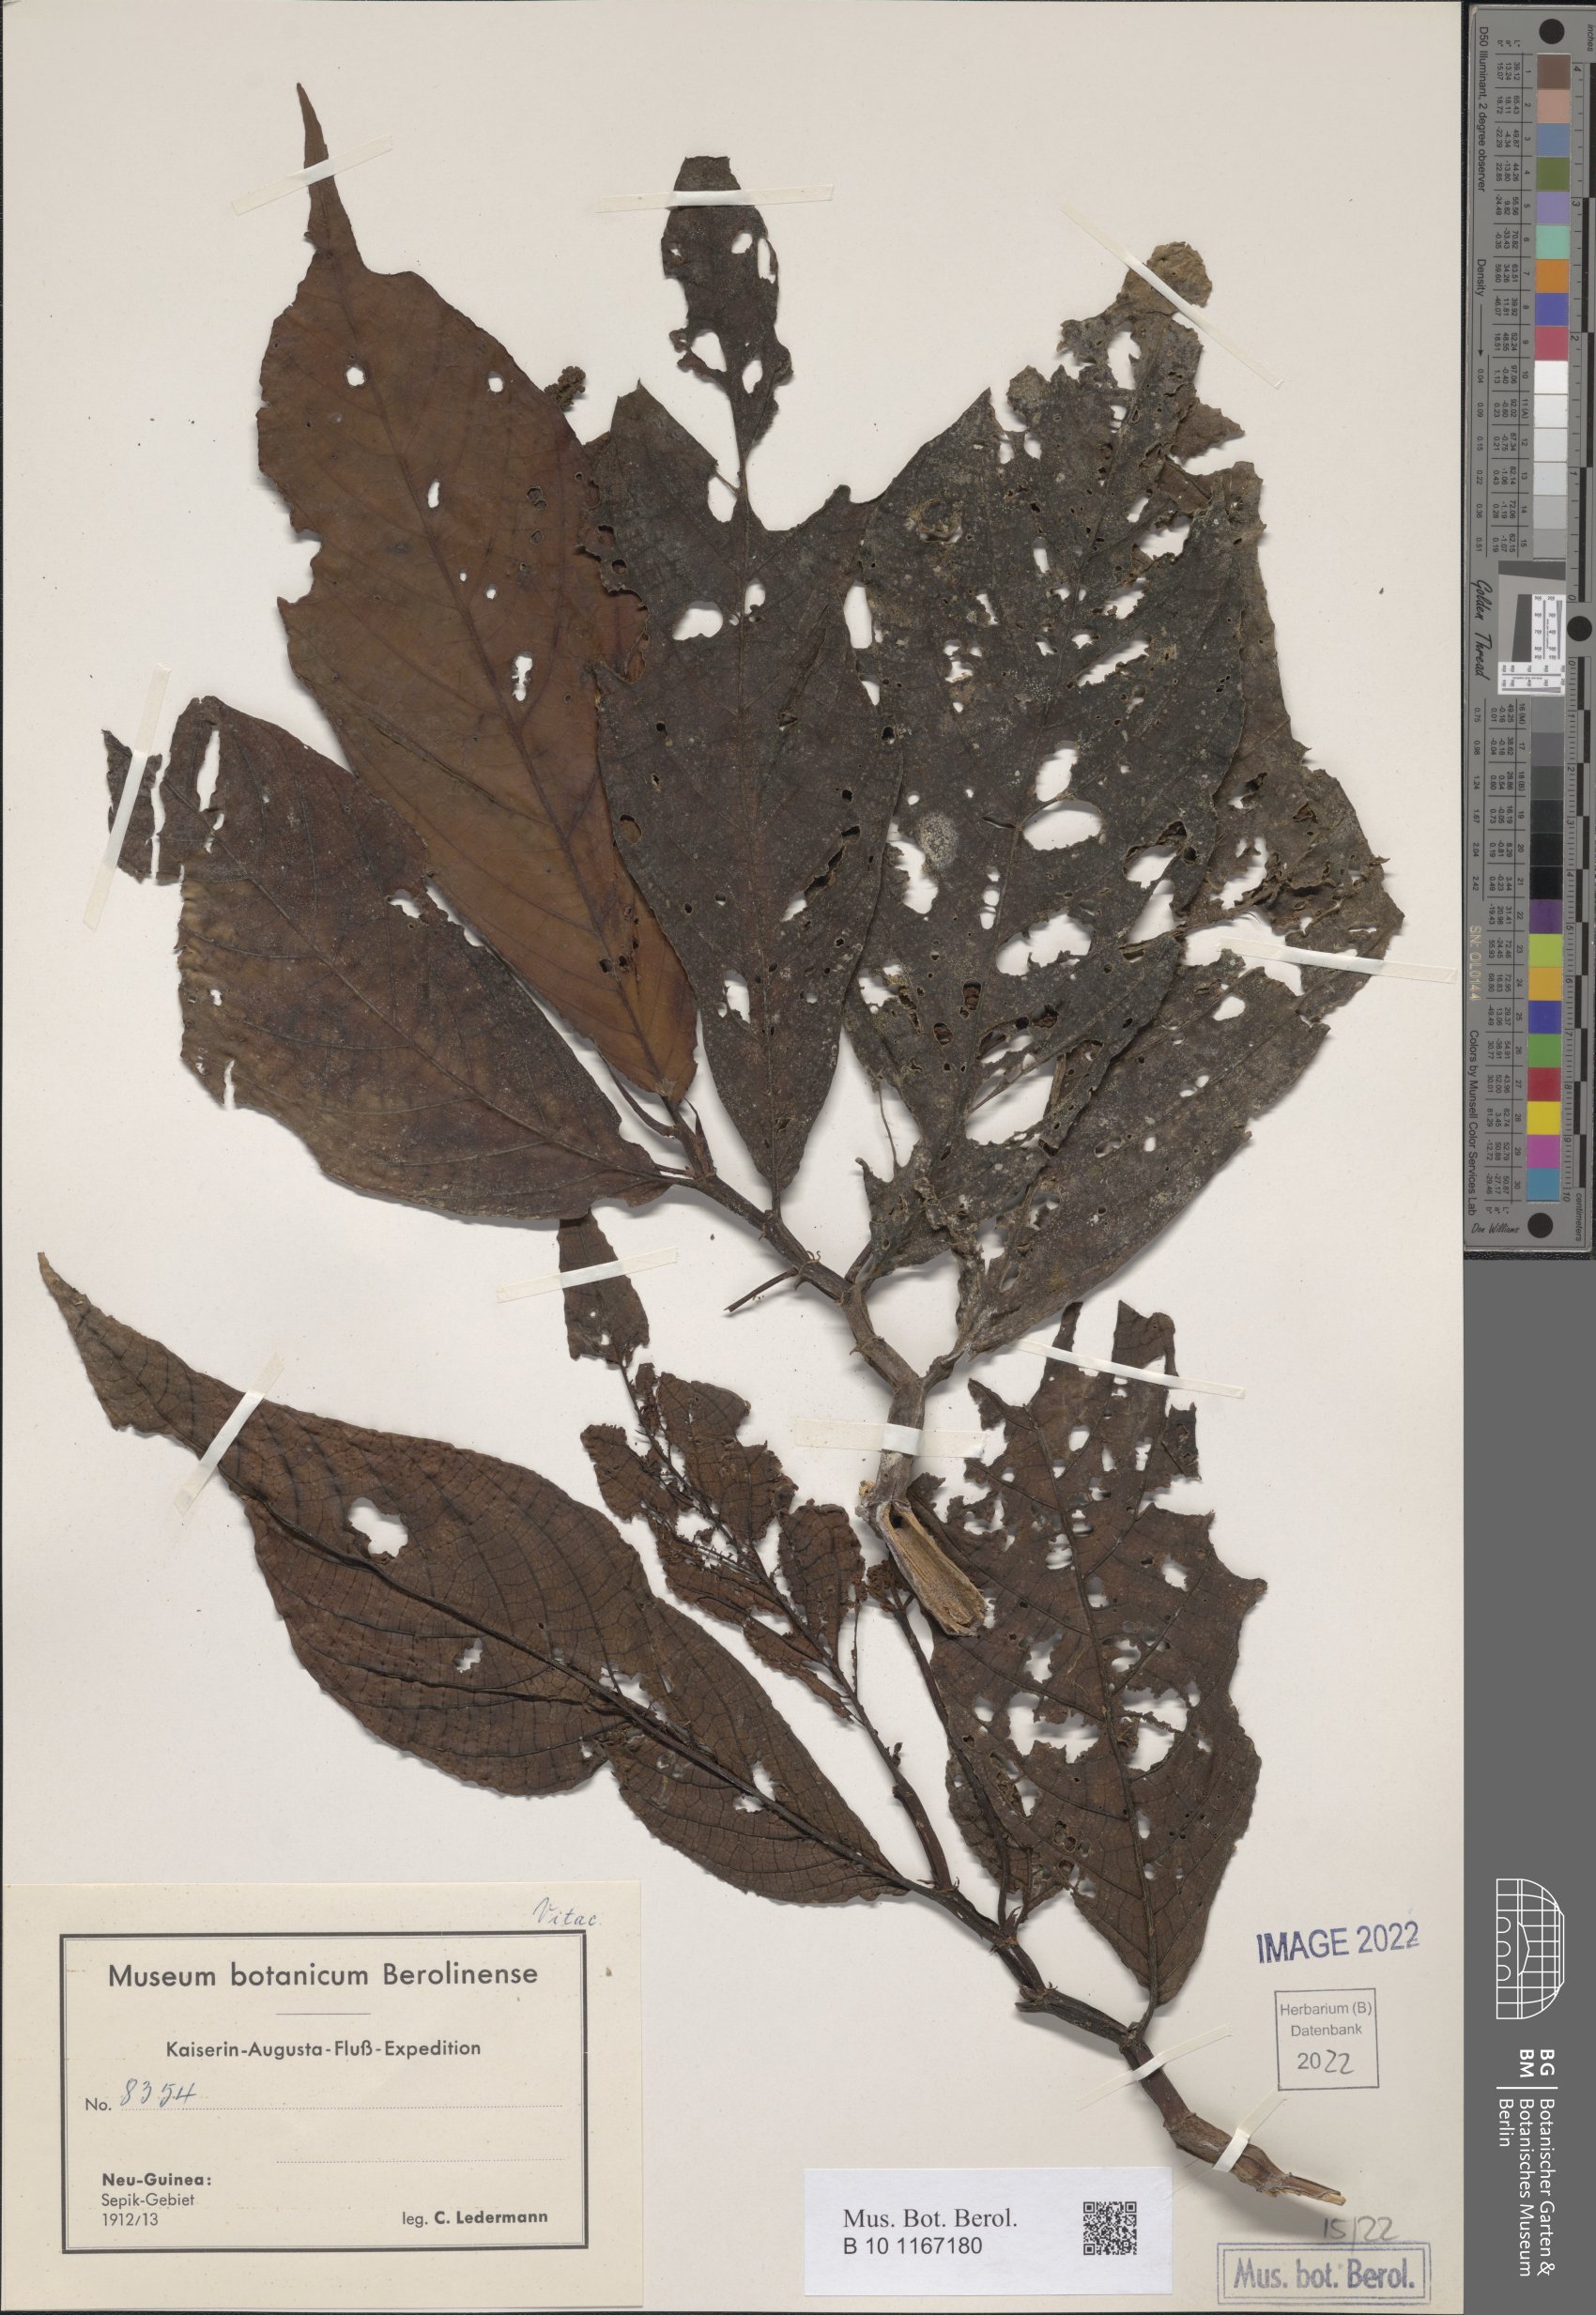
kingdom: Plantae
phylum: Tracheophyta
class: Magnoliopsida
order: Vitales
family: Vitaceae
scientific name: Vitaceae
